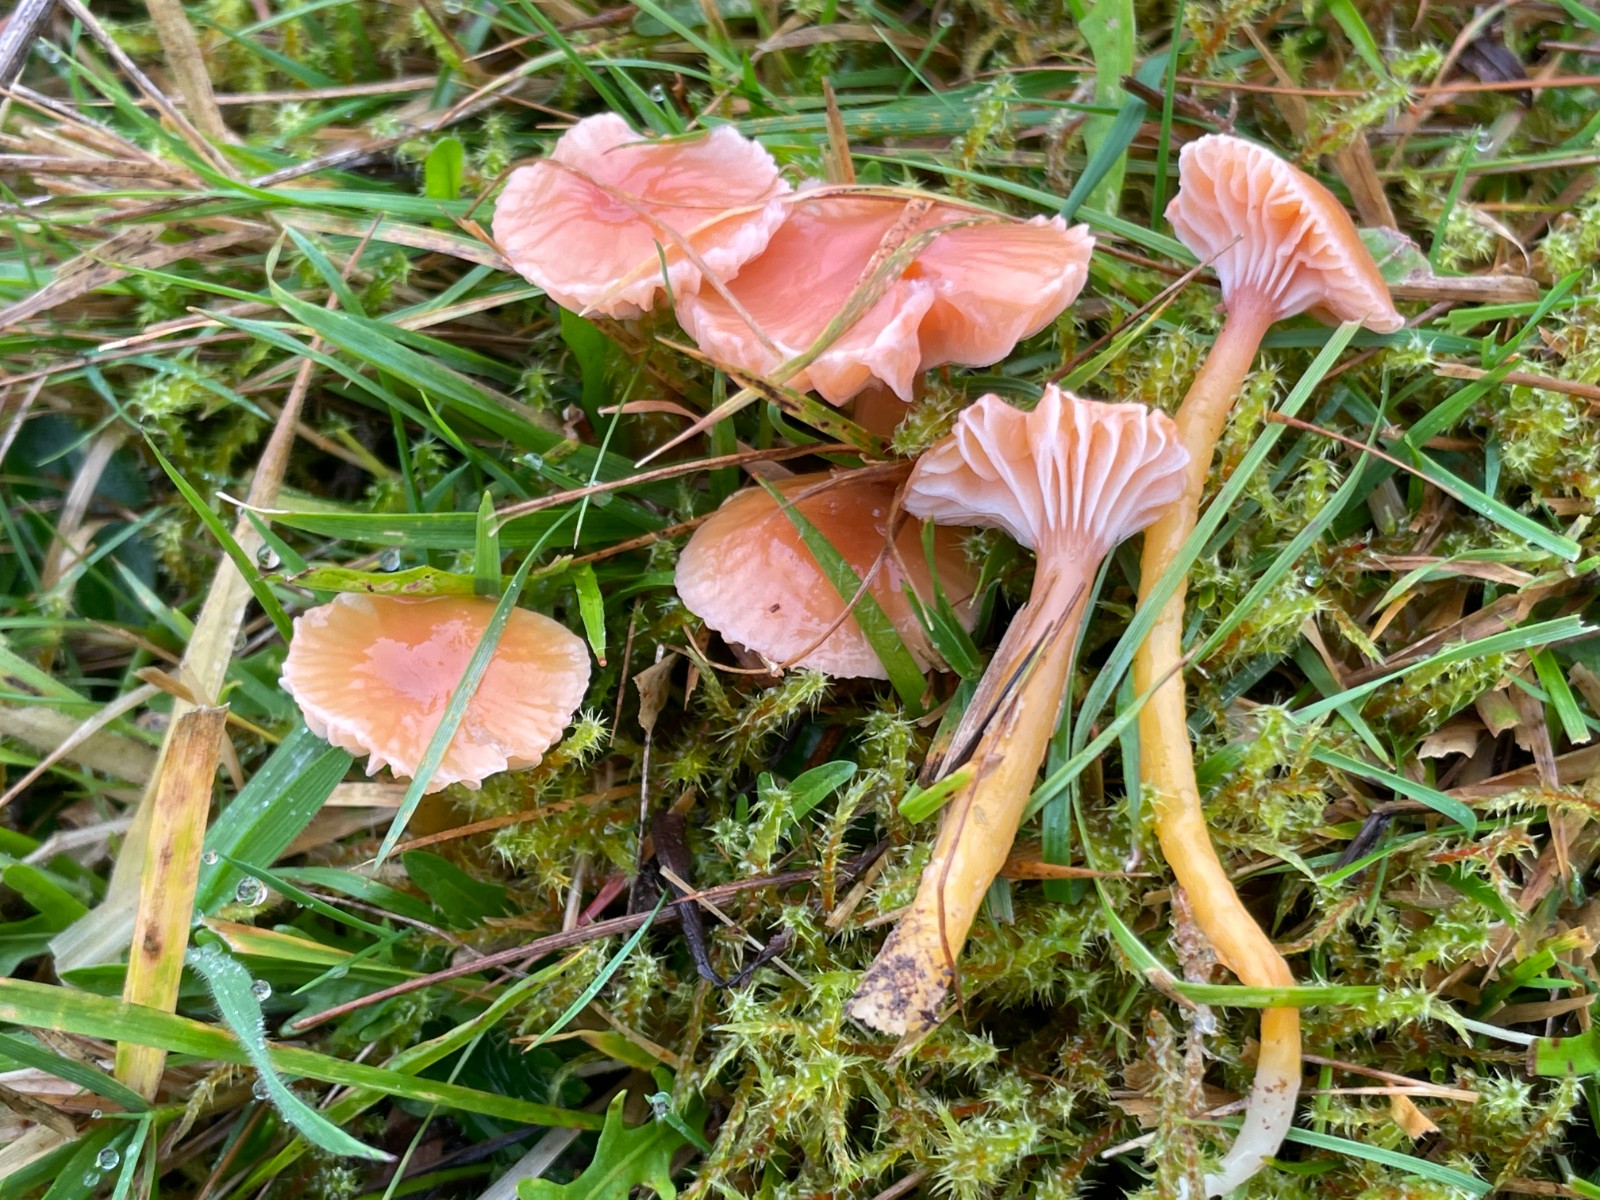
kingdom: Fungi
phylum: Basidiomycota
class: Agaricomycetes
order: Agaricales
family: Hygrophoraceae
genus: Gliophorus
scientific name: Gliophorus laetus
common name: brusk-vokshat
